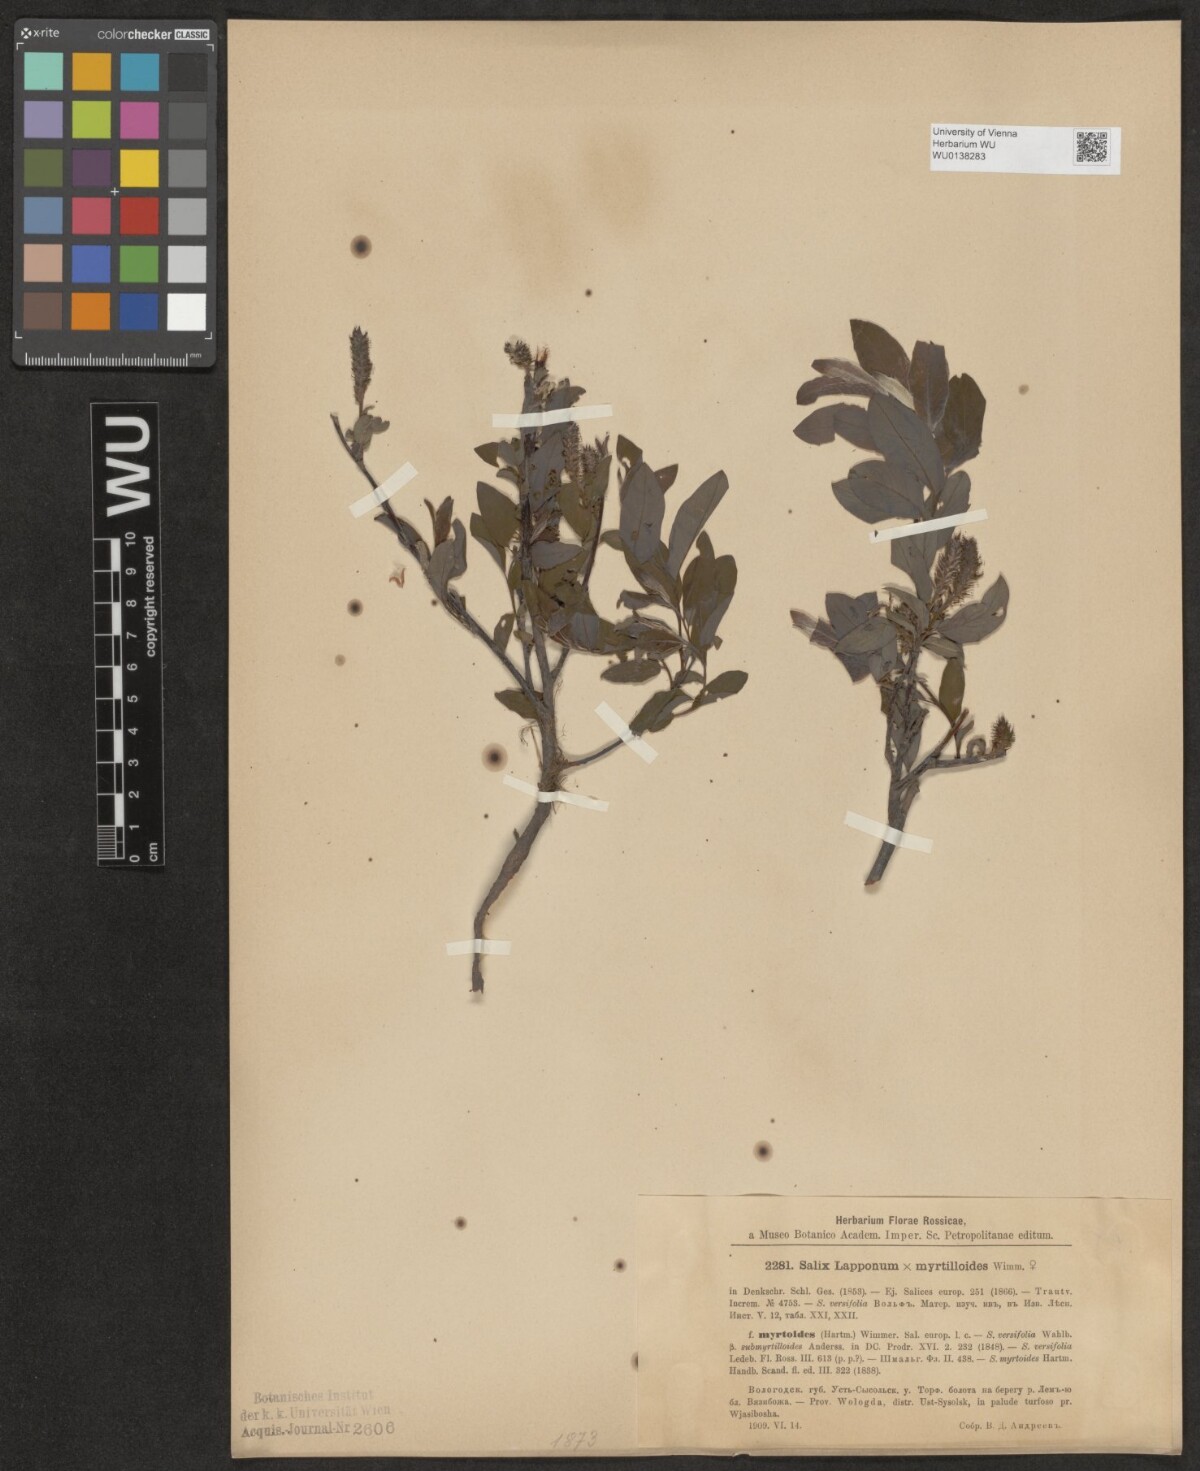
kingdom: Plantae
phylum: Tracheophyta
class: Magnoliopsida
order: Malpighiales
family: Salicaceae
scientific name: Salicaceae
